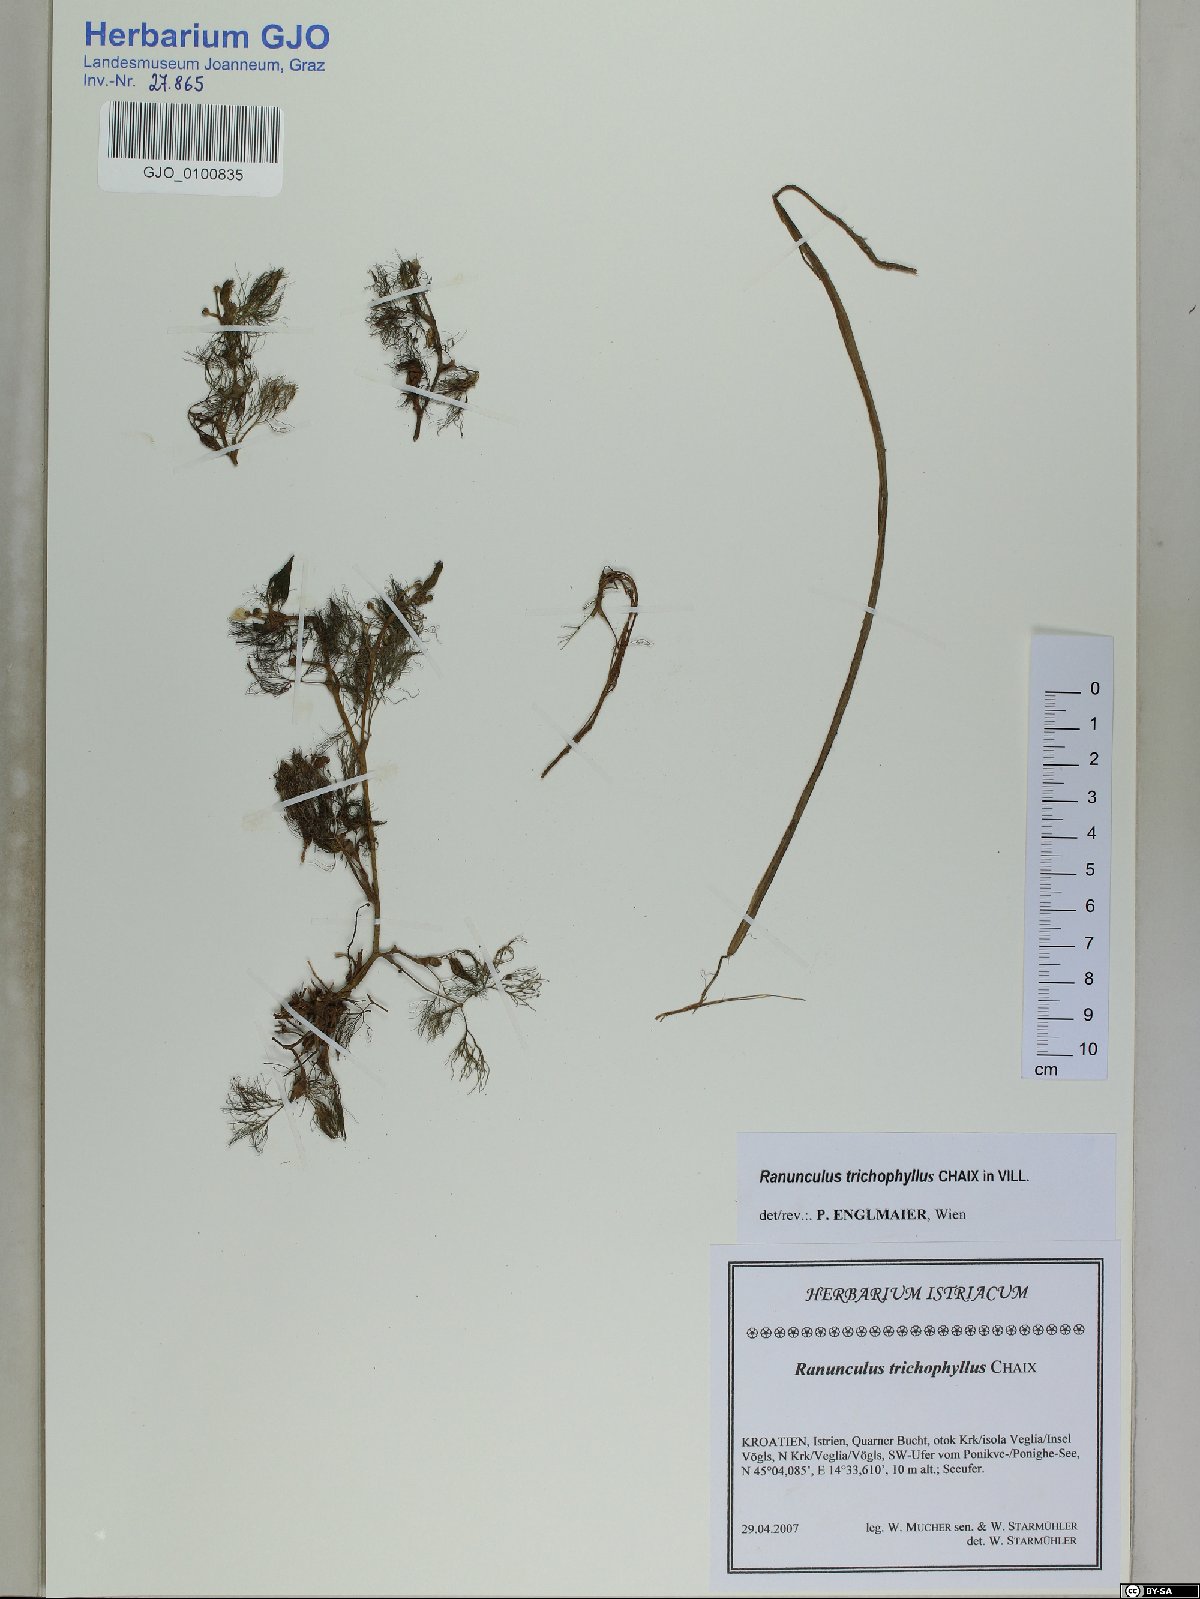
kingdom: Plantae
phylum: Tracheophyta
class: Magnoliopsida
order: Ranunculales
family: Ranunculaceae
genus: Ranunculus
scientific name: Ranunculus trichophyllus
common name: Thread-leaved water-crowfoot
